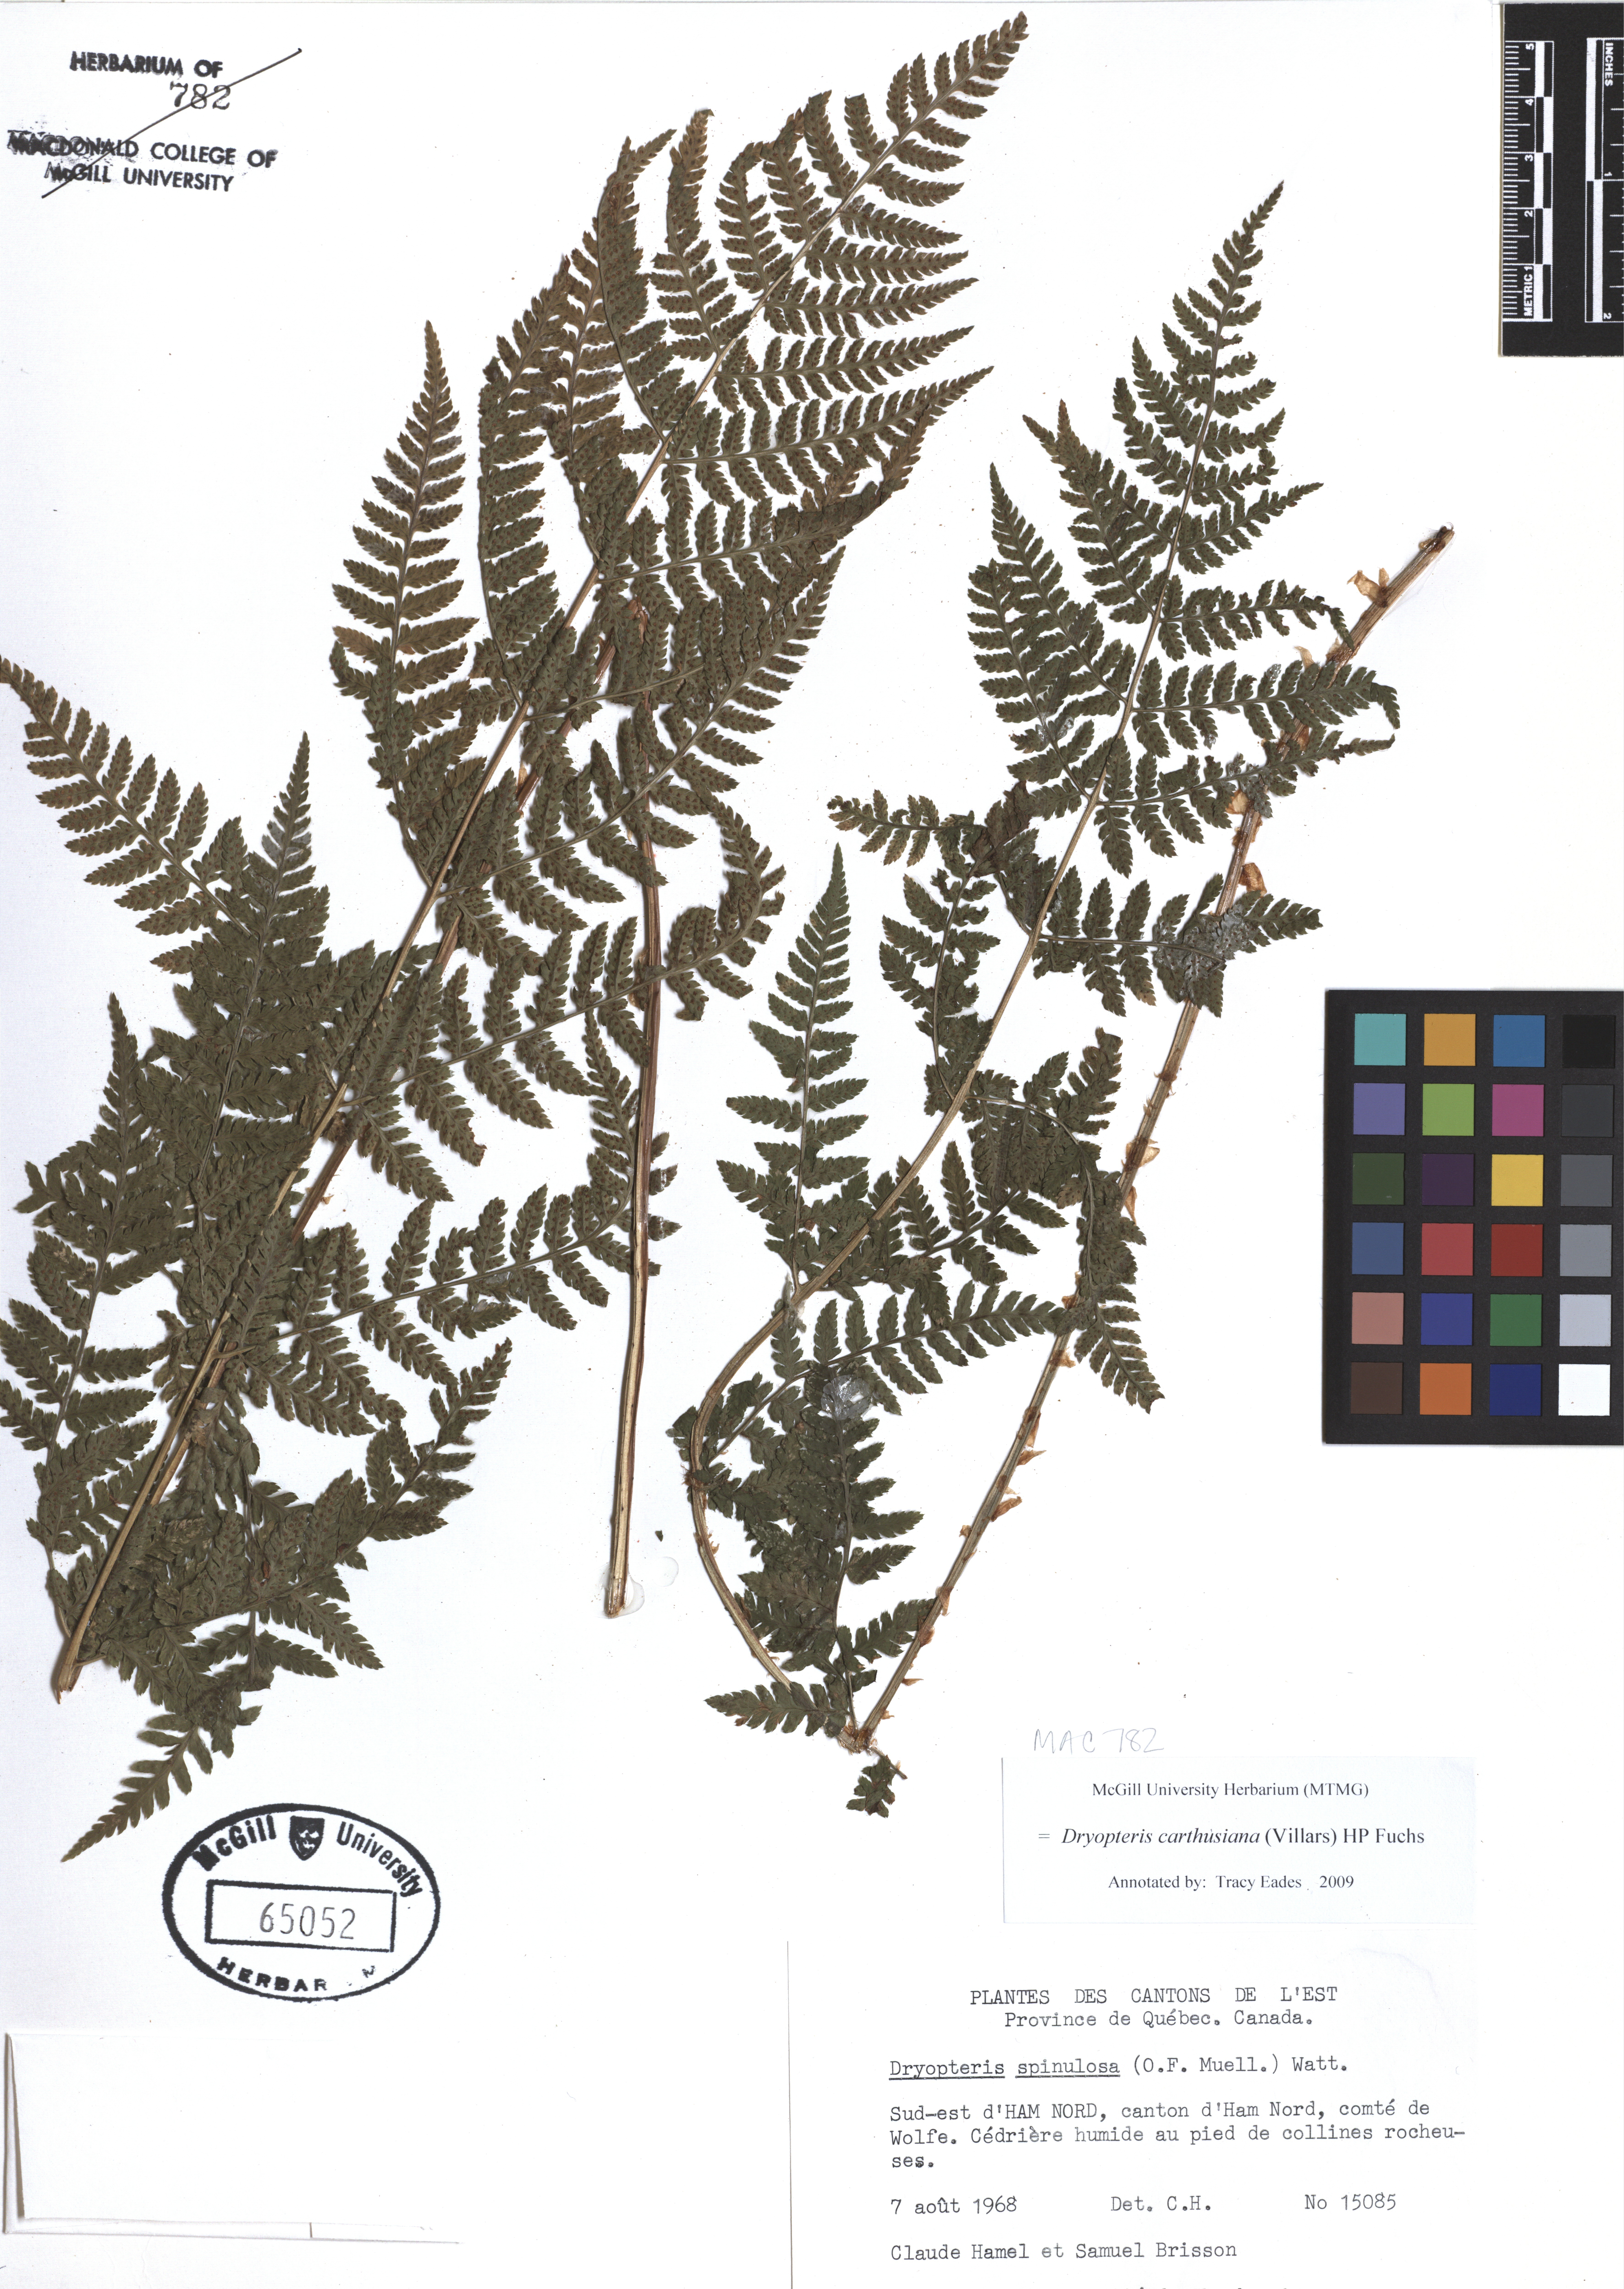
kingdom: Plantae
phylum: Tracheophyta
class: Polypodiopsida
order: Polypodiales
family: Dryopteridaceae
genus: Dryopteris
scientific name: Dryopteris carthusiana
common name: Narrow buckler-fern
